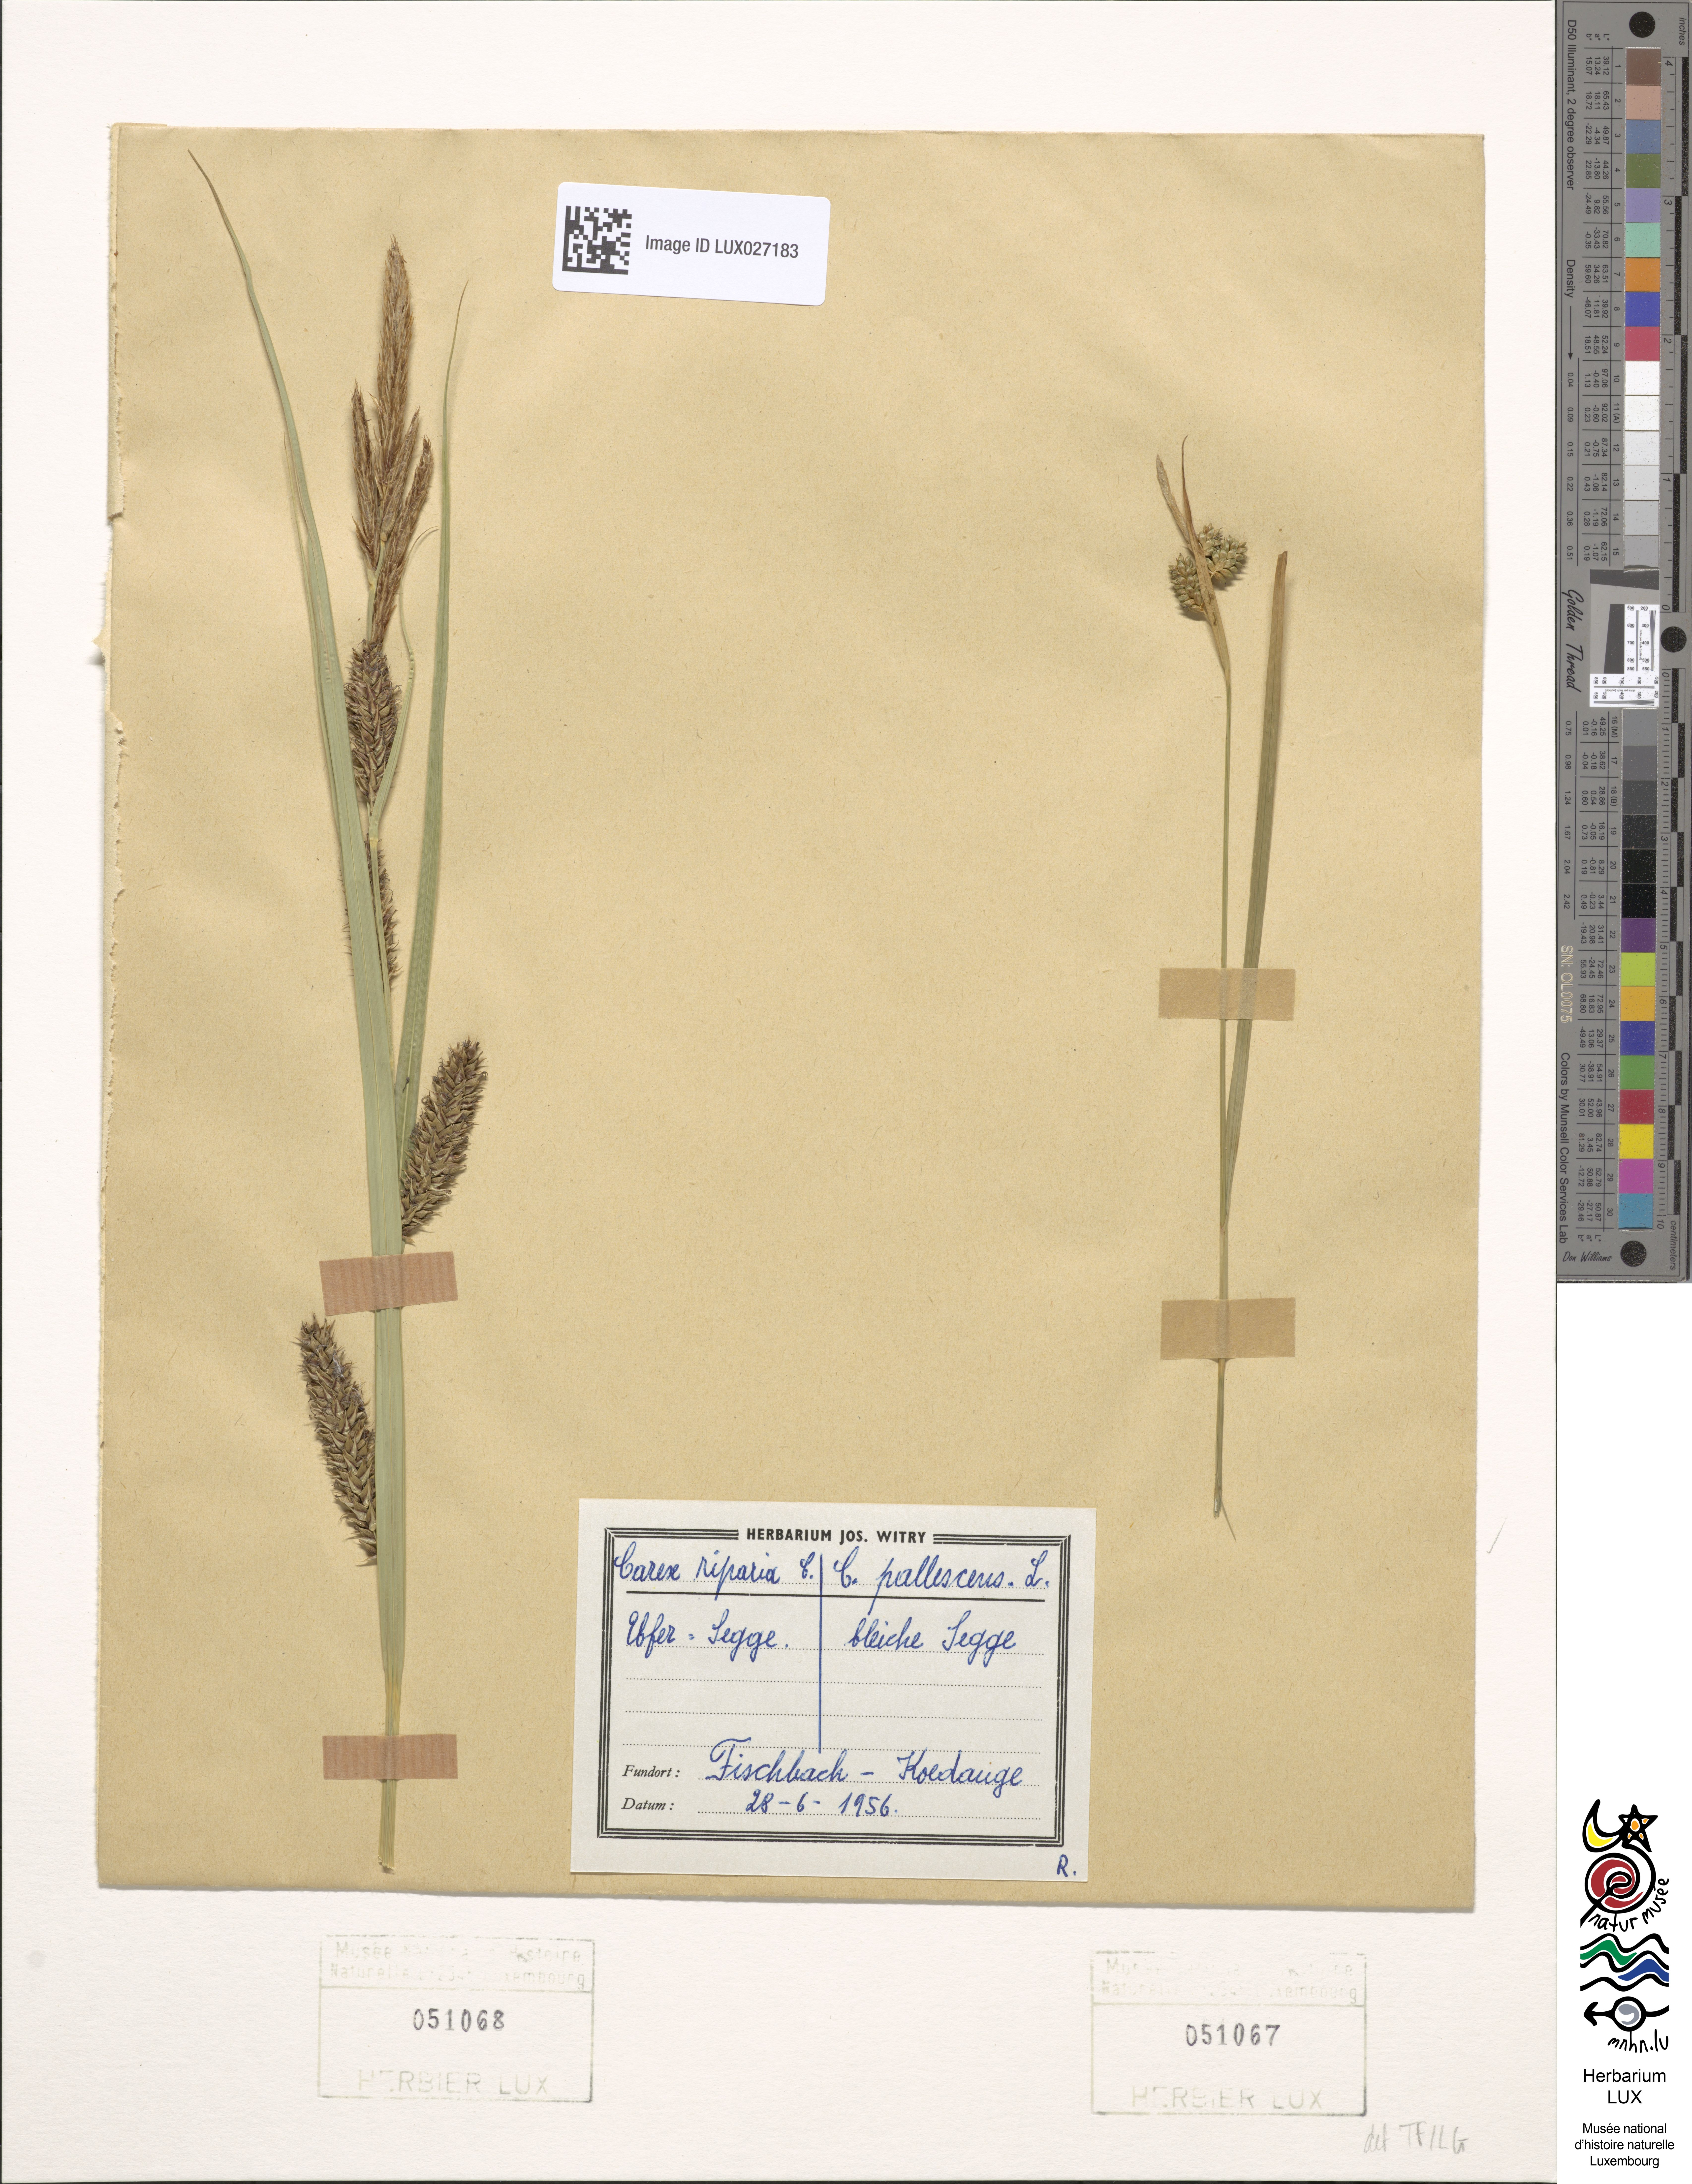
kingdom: Plantae
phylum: Tracheophyta
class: Liliopsida
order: Poales
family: Cyperaceae
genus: Carex
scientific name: Carex riparia
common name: Greater pond-sedge
